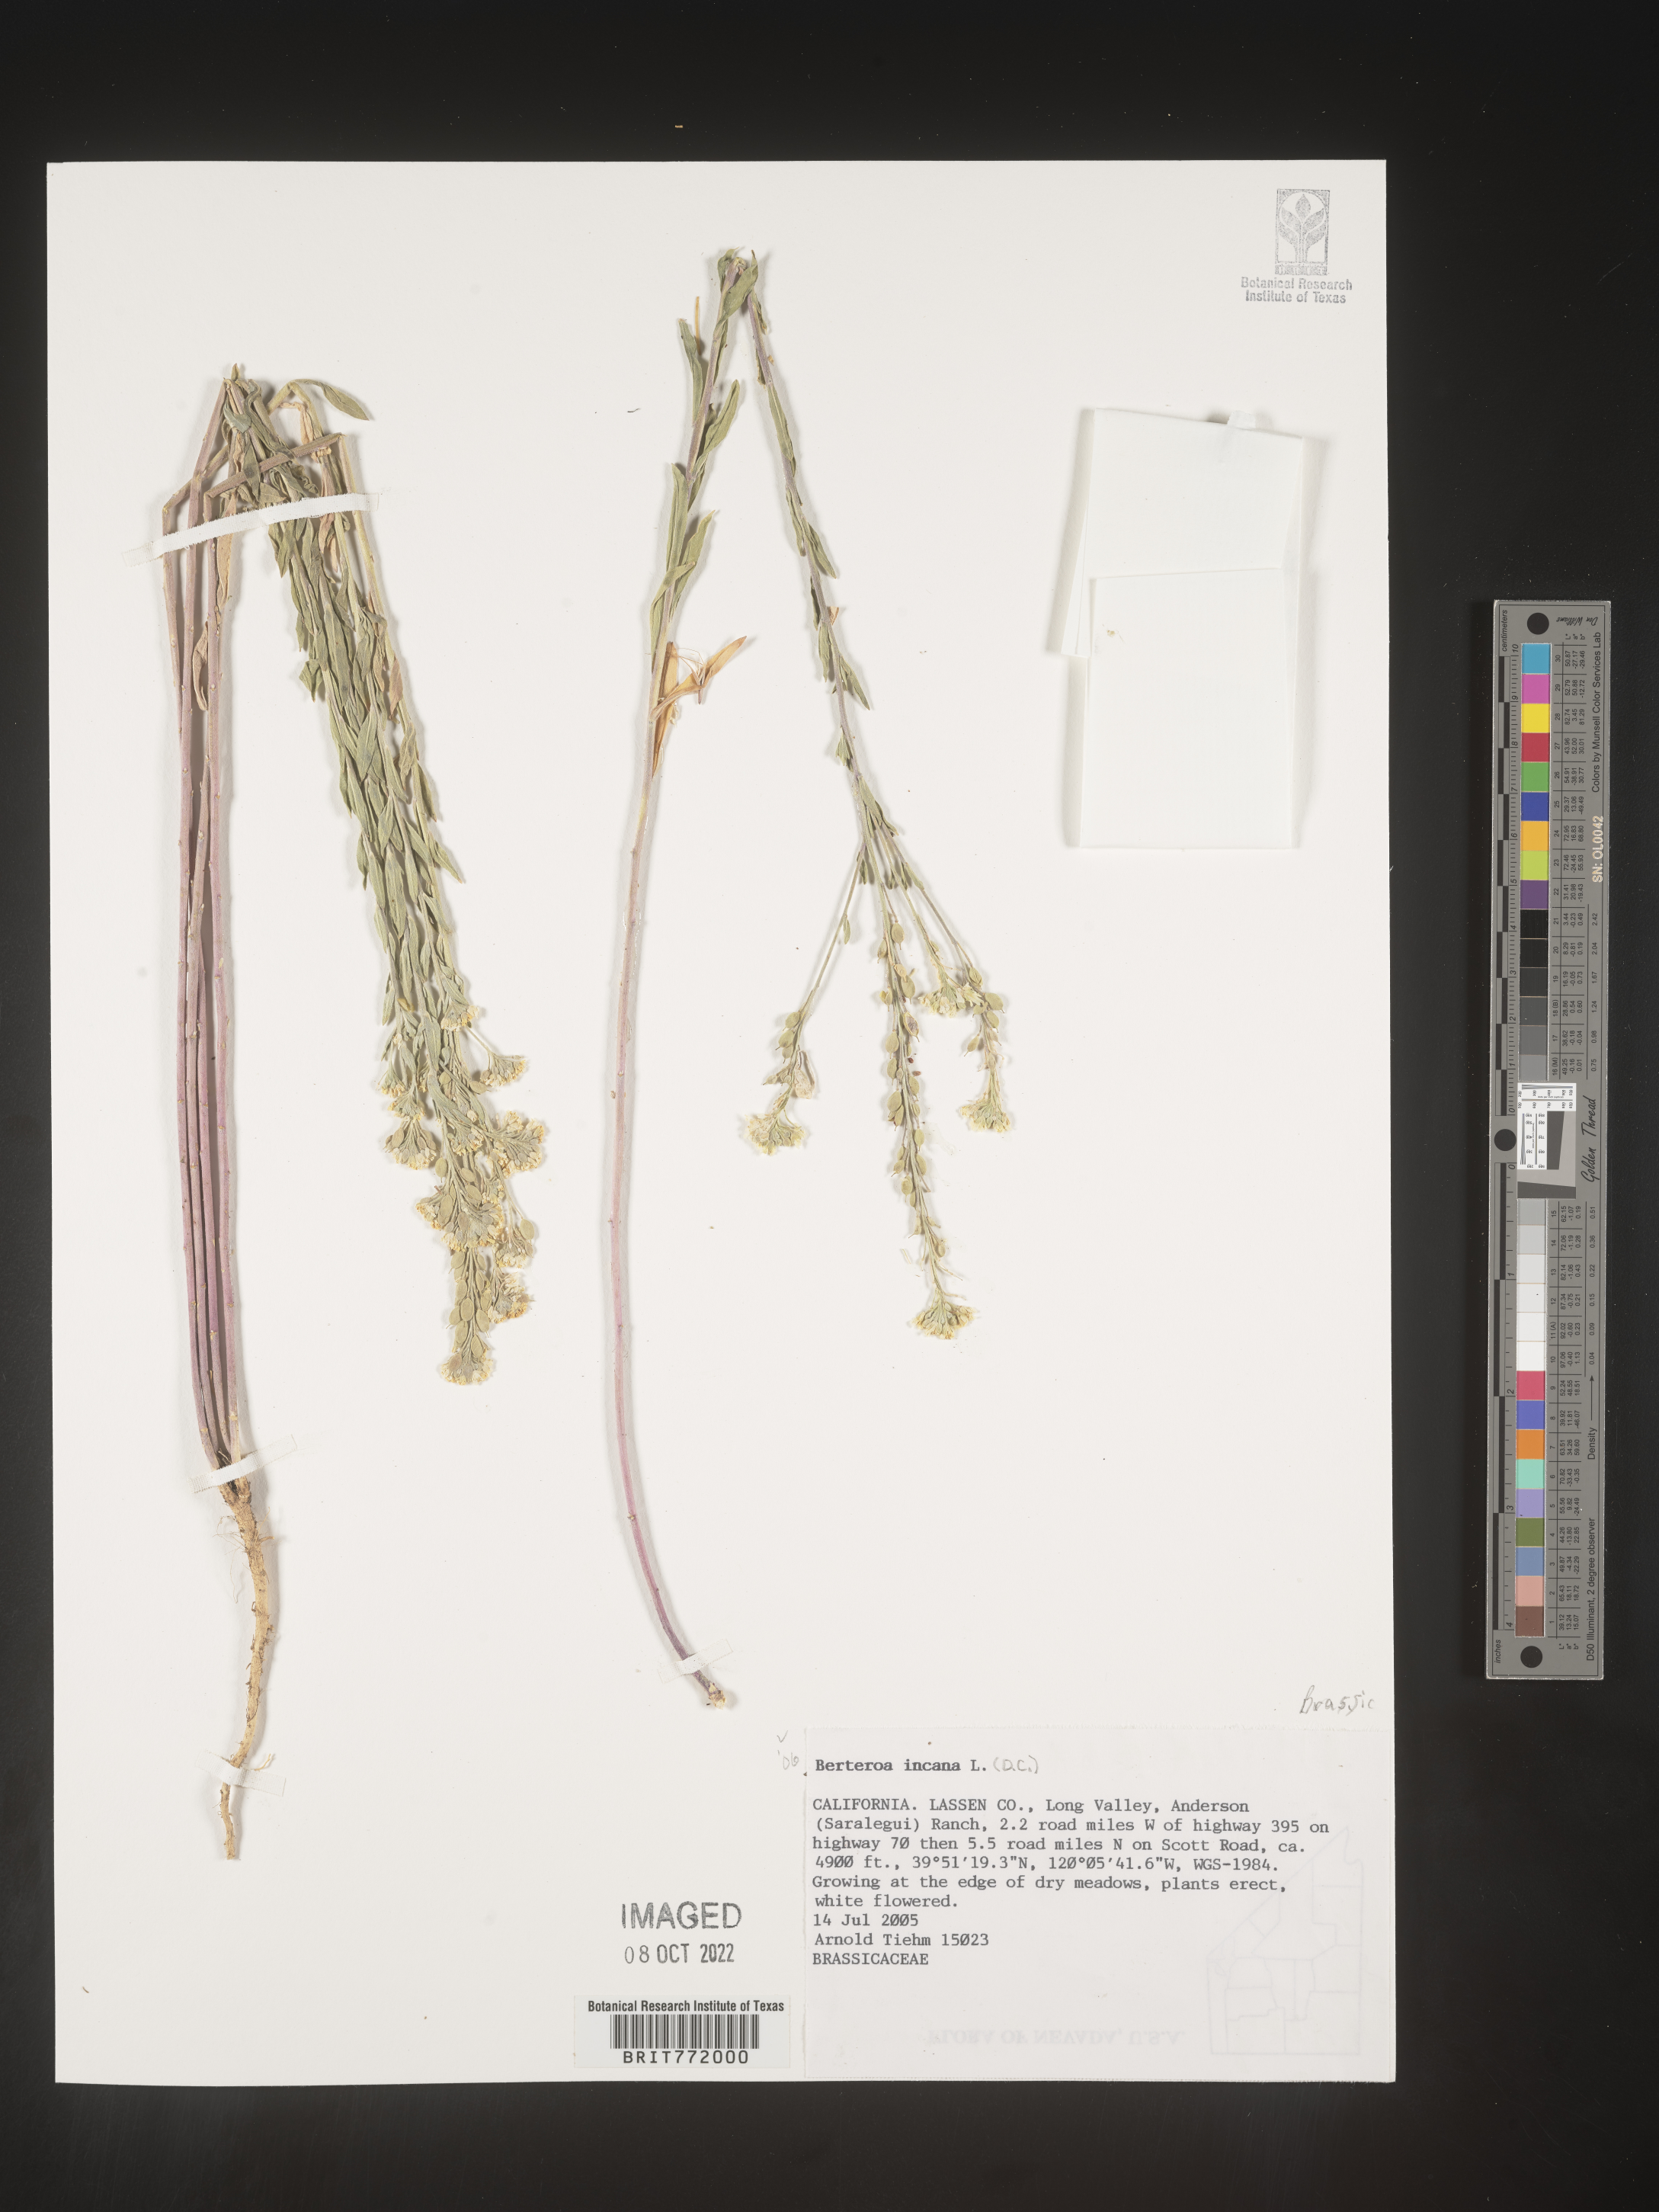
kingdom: Plantae
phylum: Tracheophyta
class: Magnoliopsida
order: Brassicales
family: Brassicaceae
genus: Berteroa
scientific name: Berteroa incana
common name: Hoary alison
